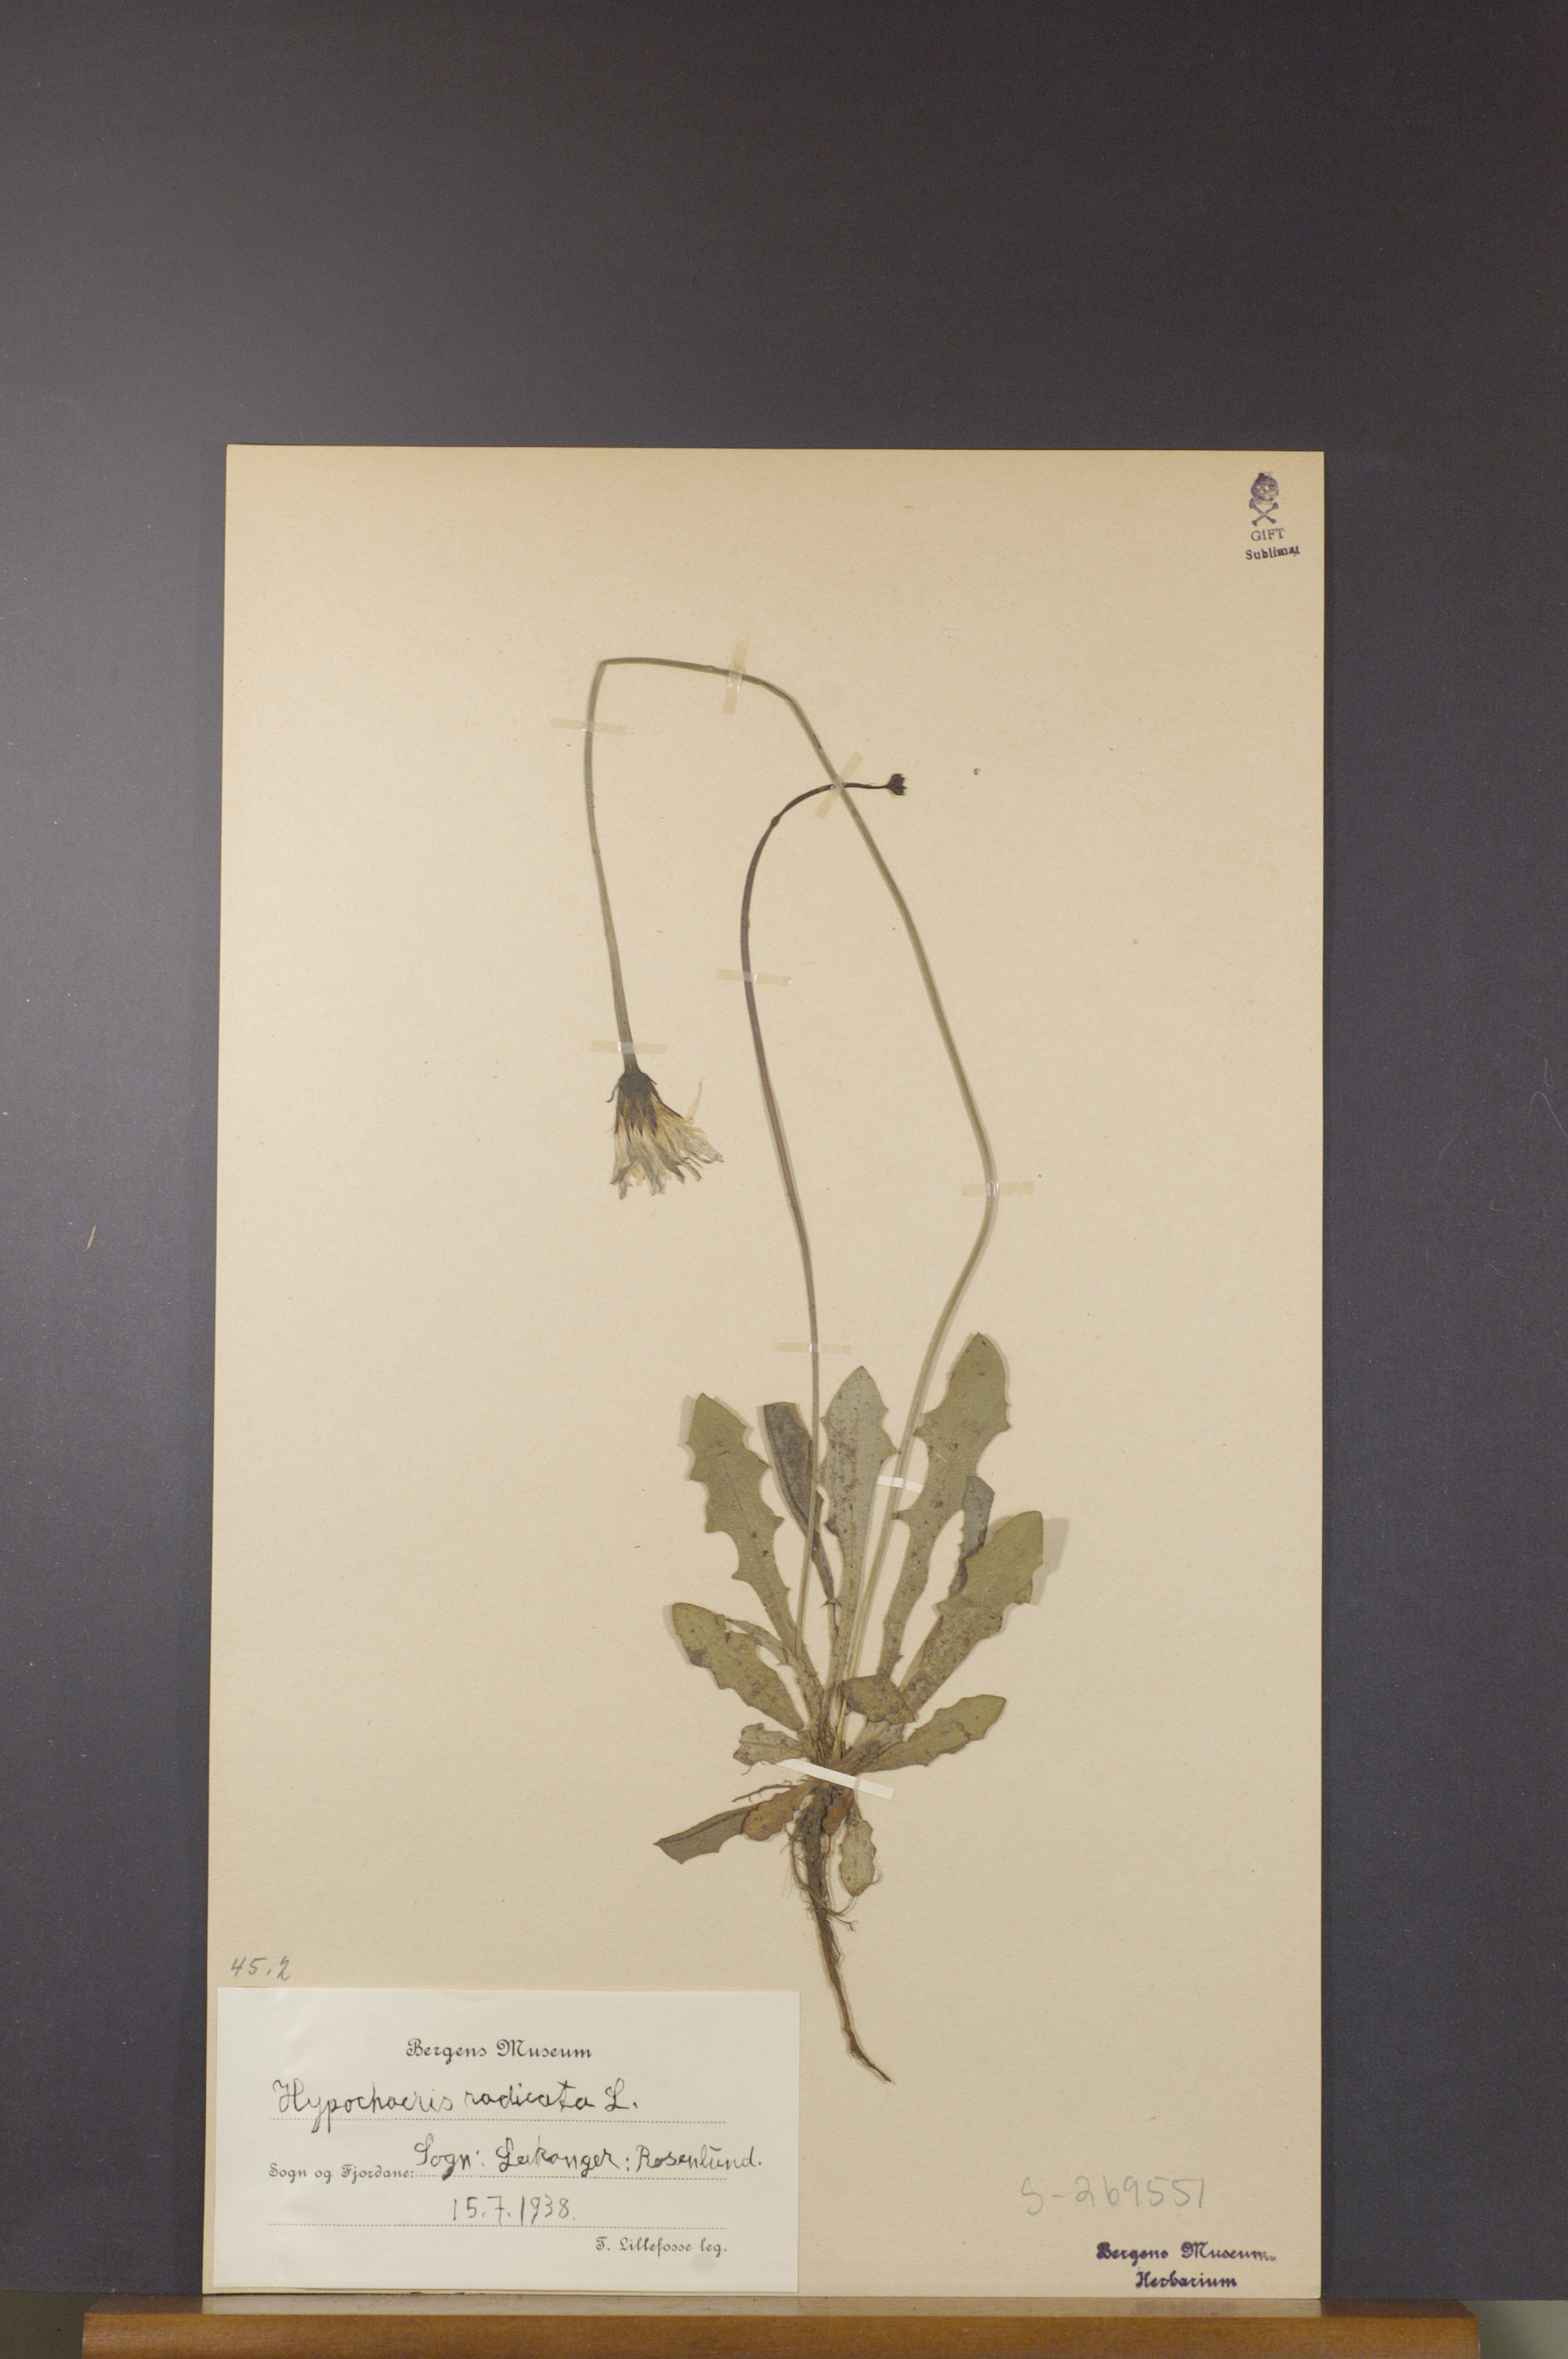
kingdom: Plantae
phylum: Tracheophyta
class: Magnoliopsida
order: Asterales
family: Asteraceae
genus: Hypochaeris
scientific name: Hypochaeris radicata
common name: Flatweed
